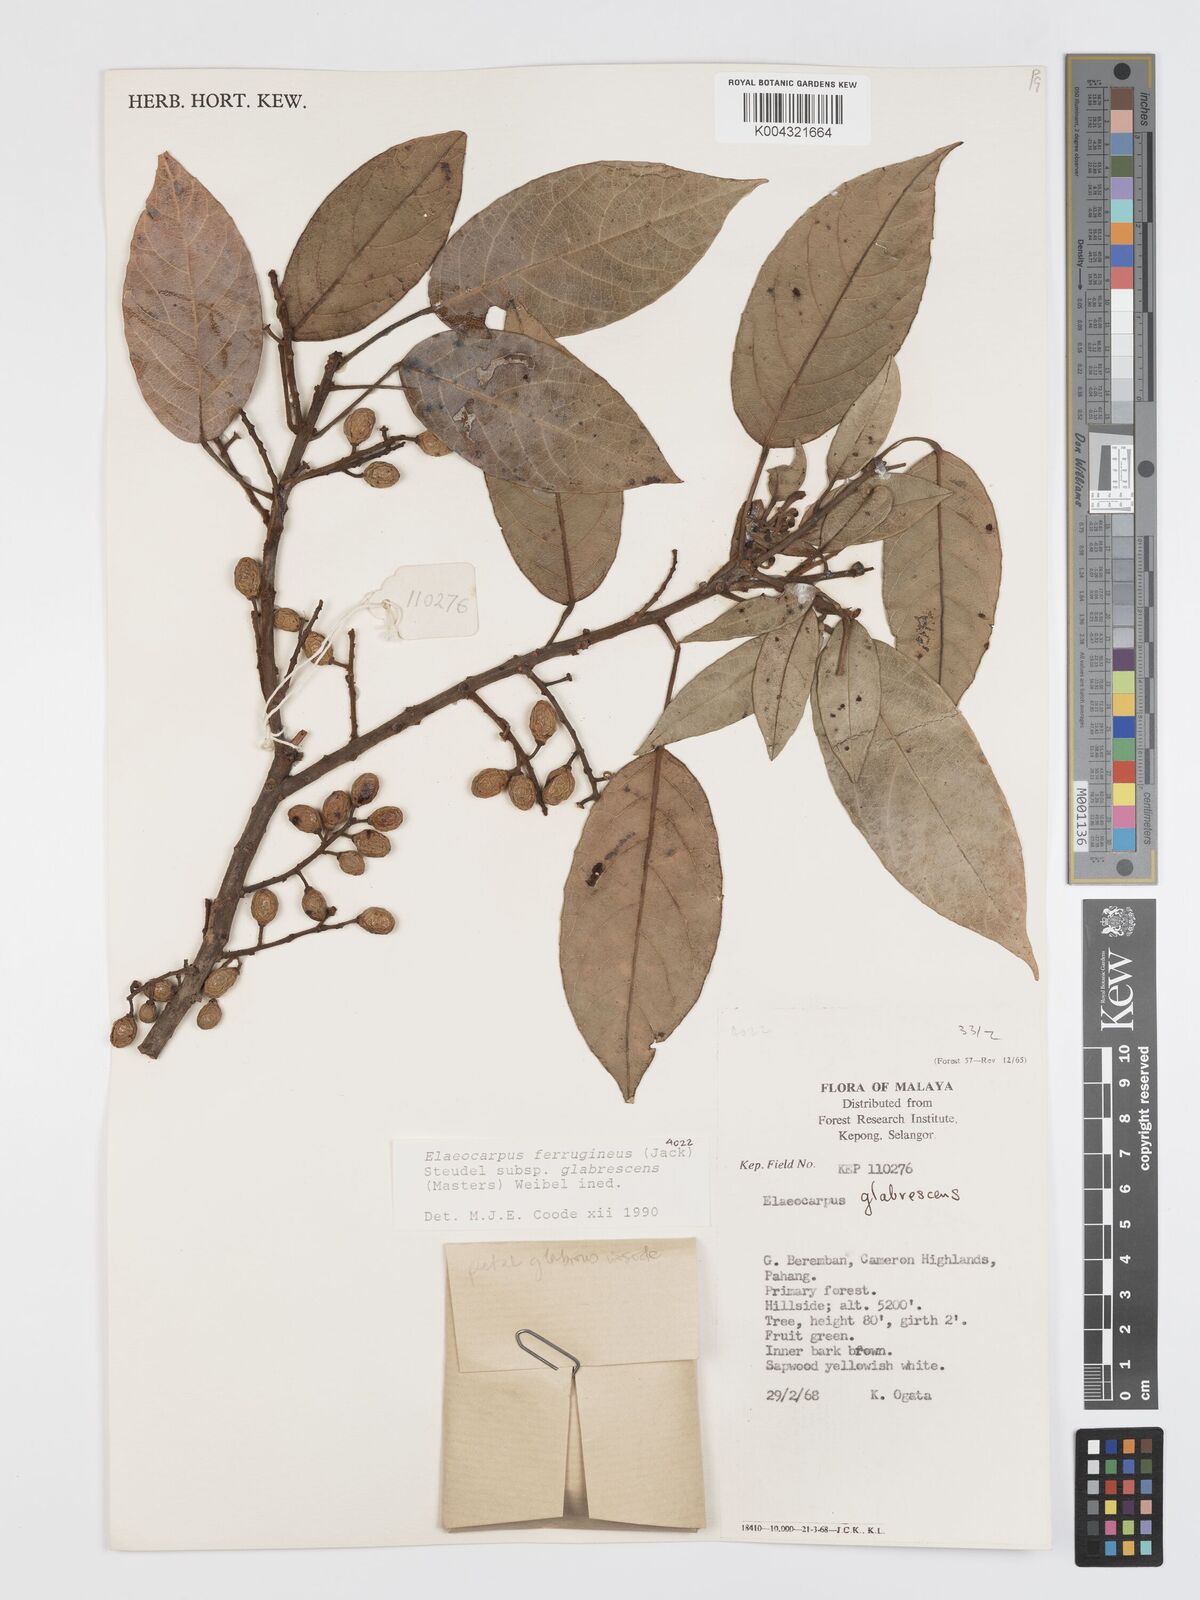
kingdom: Plantae
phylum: Tracheophyta
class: Magnoliopsida
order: Oxalidales
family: Elaeocarpaceae
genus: Elaeocarpus
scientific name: Elaeocarpus ferrugineus
